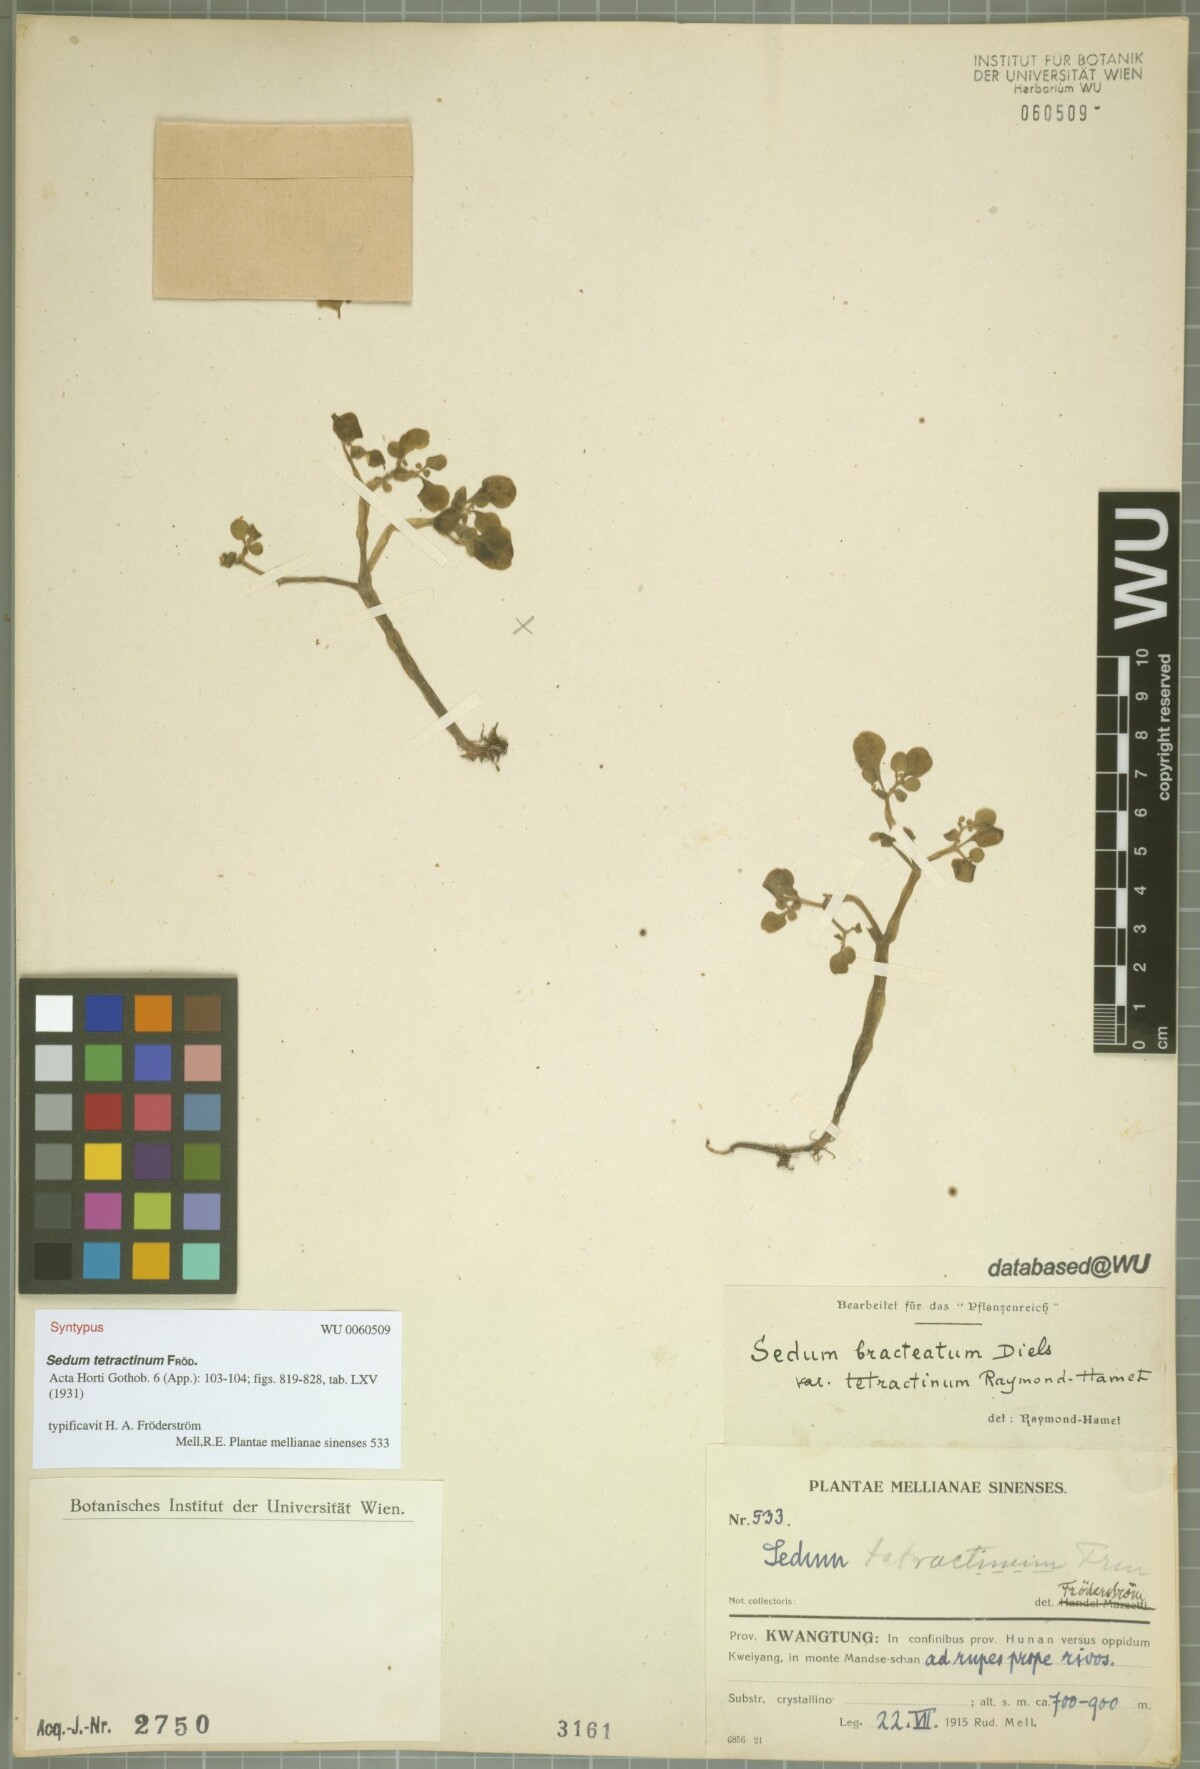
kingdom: Plantae
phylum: Tracheophyta
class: Magnoliopsida
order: Saxifragales
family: Crassulaceae
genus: Sedum
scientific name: Sedum tetractinum
